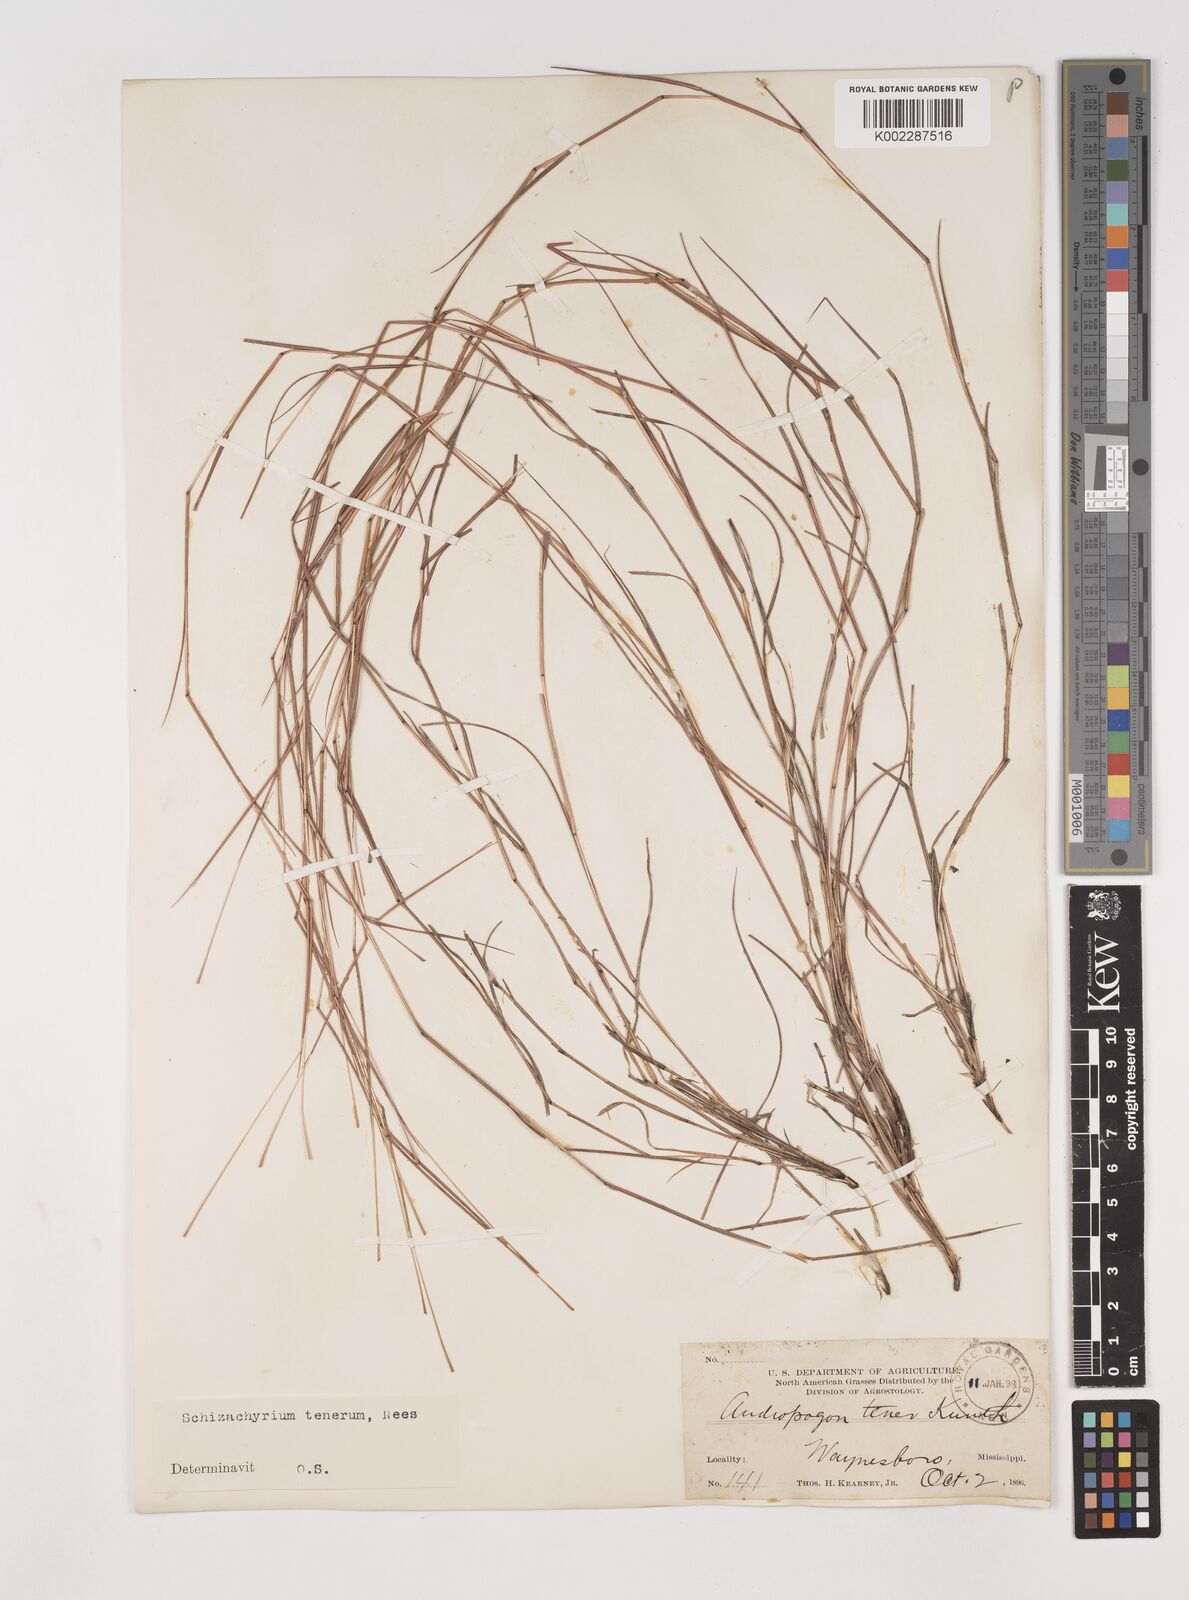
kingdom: Plantae
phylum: Tracheophyta
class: Liliopsida
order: Poales
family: Poaceae
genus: Andropogon
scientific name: Andropogon tener
